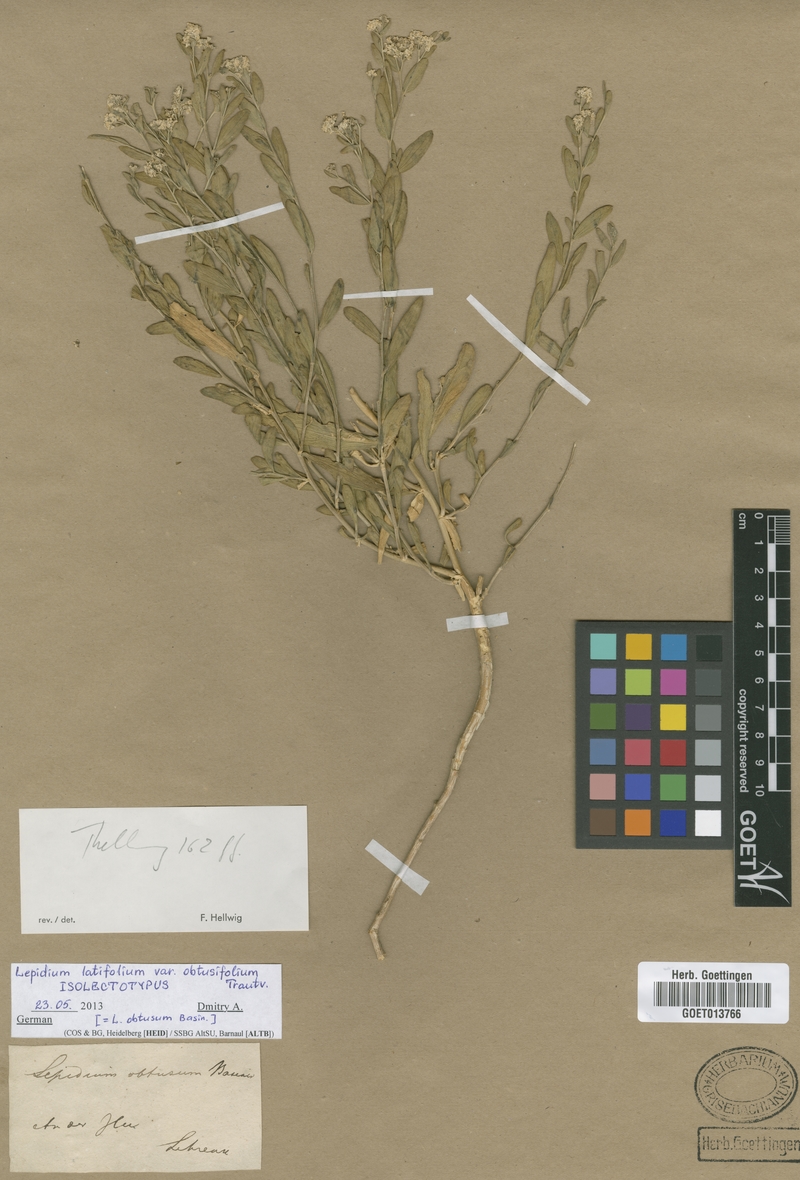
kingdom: Plantae
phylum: Tracheophyta
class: Magnoliopsida
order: Brassicales
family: Brassicaceae
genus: Lepidium
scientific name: Lepidium obtusum
